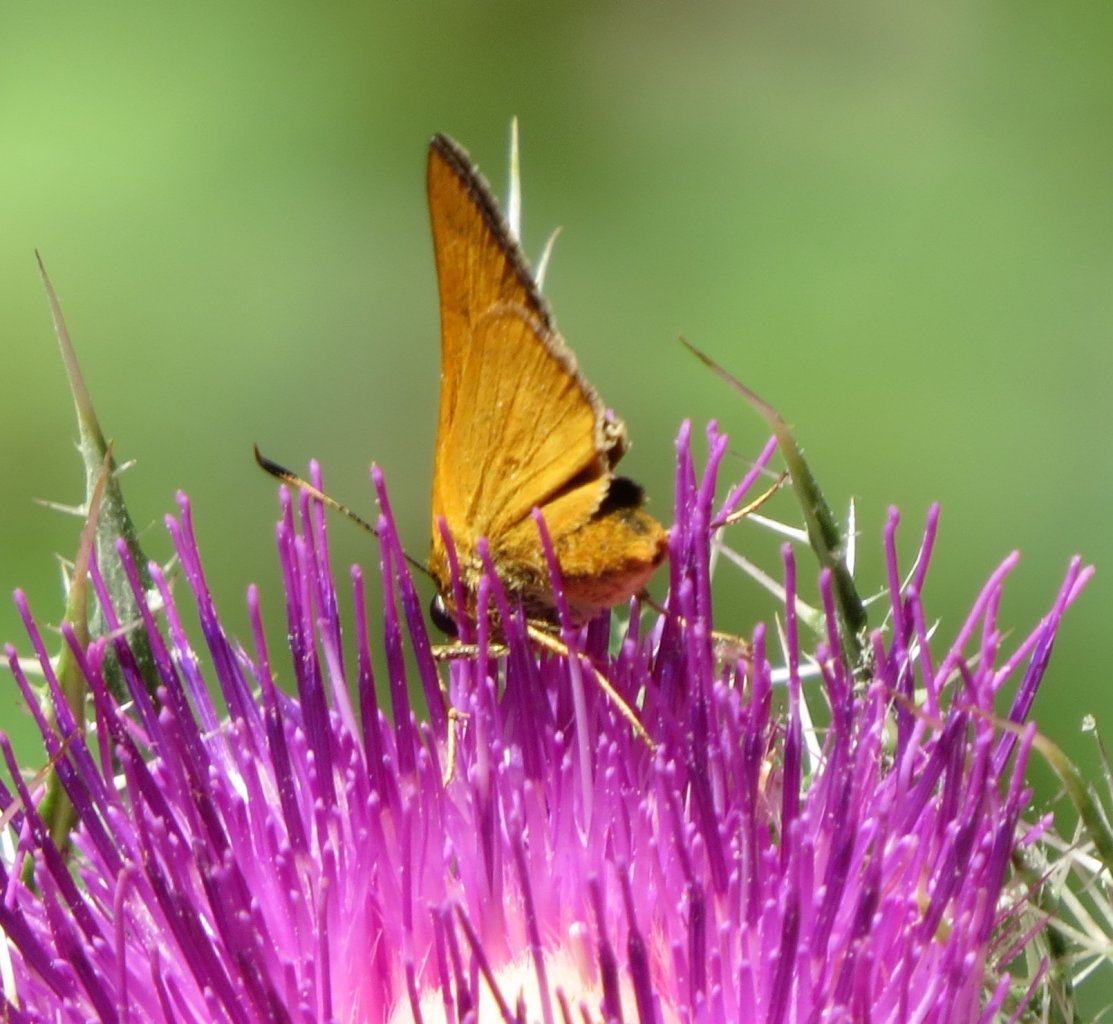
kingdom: Animalia
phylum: Arthropoda
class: Insecta
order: Lepidoptera
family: Hesperiidae
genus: Problema
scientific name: Problema byssus
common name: Byssus Skipper
